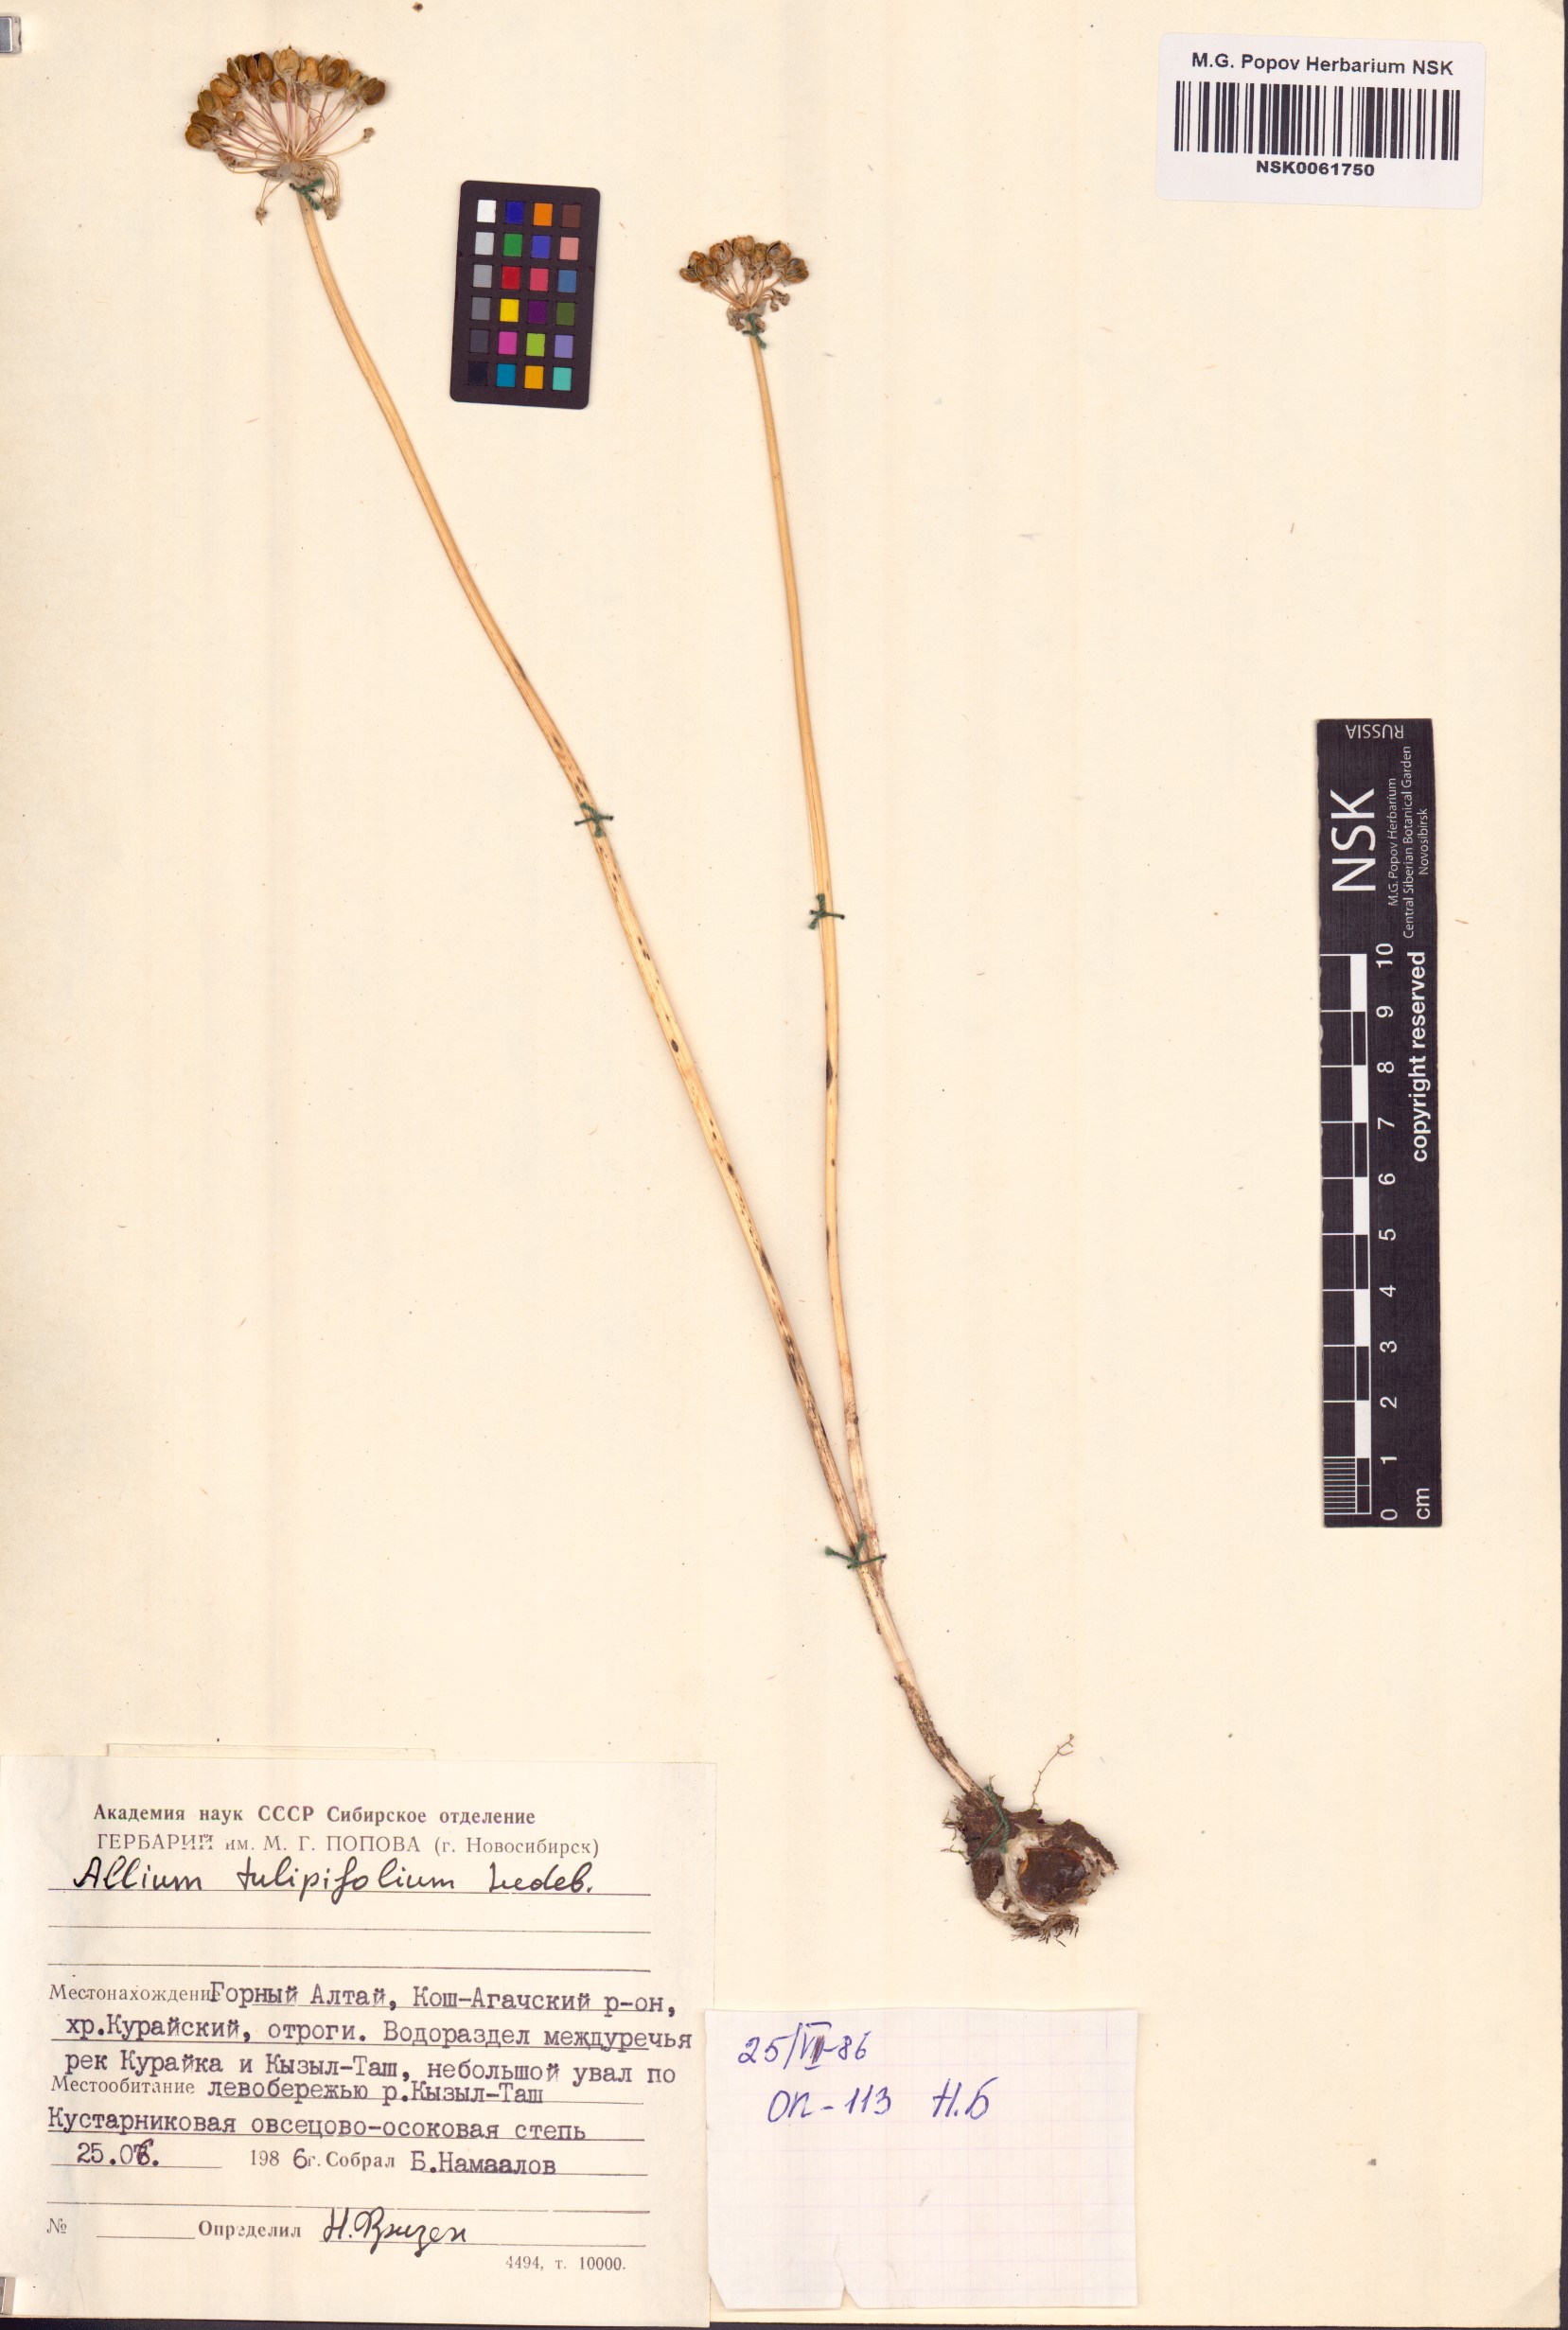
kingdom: Plantae
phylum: Tracheophyta
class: Liliopsida
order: Asparagales
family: Amaryllidaceae
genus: Allium
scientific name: Allium tulipifolium
